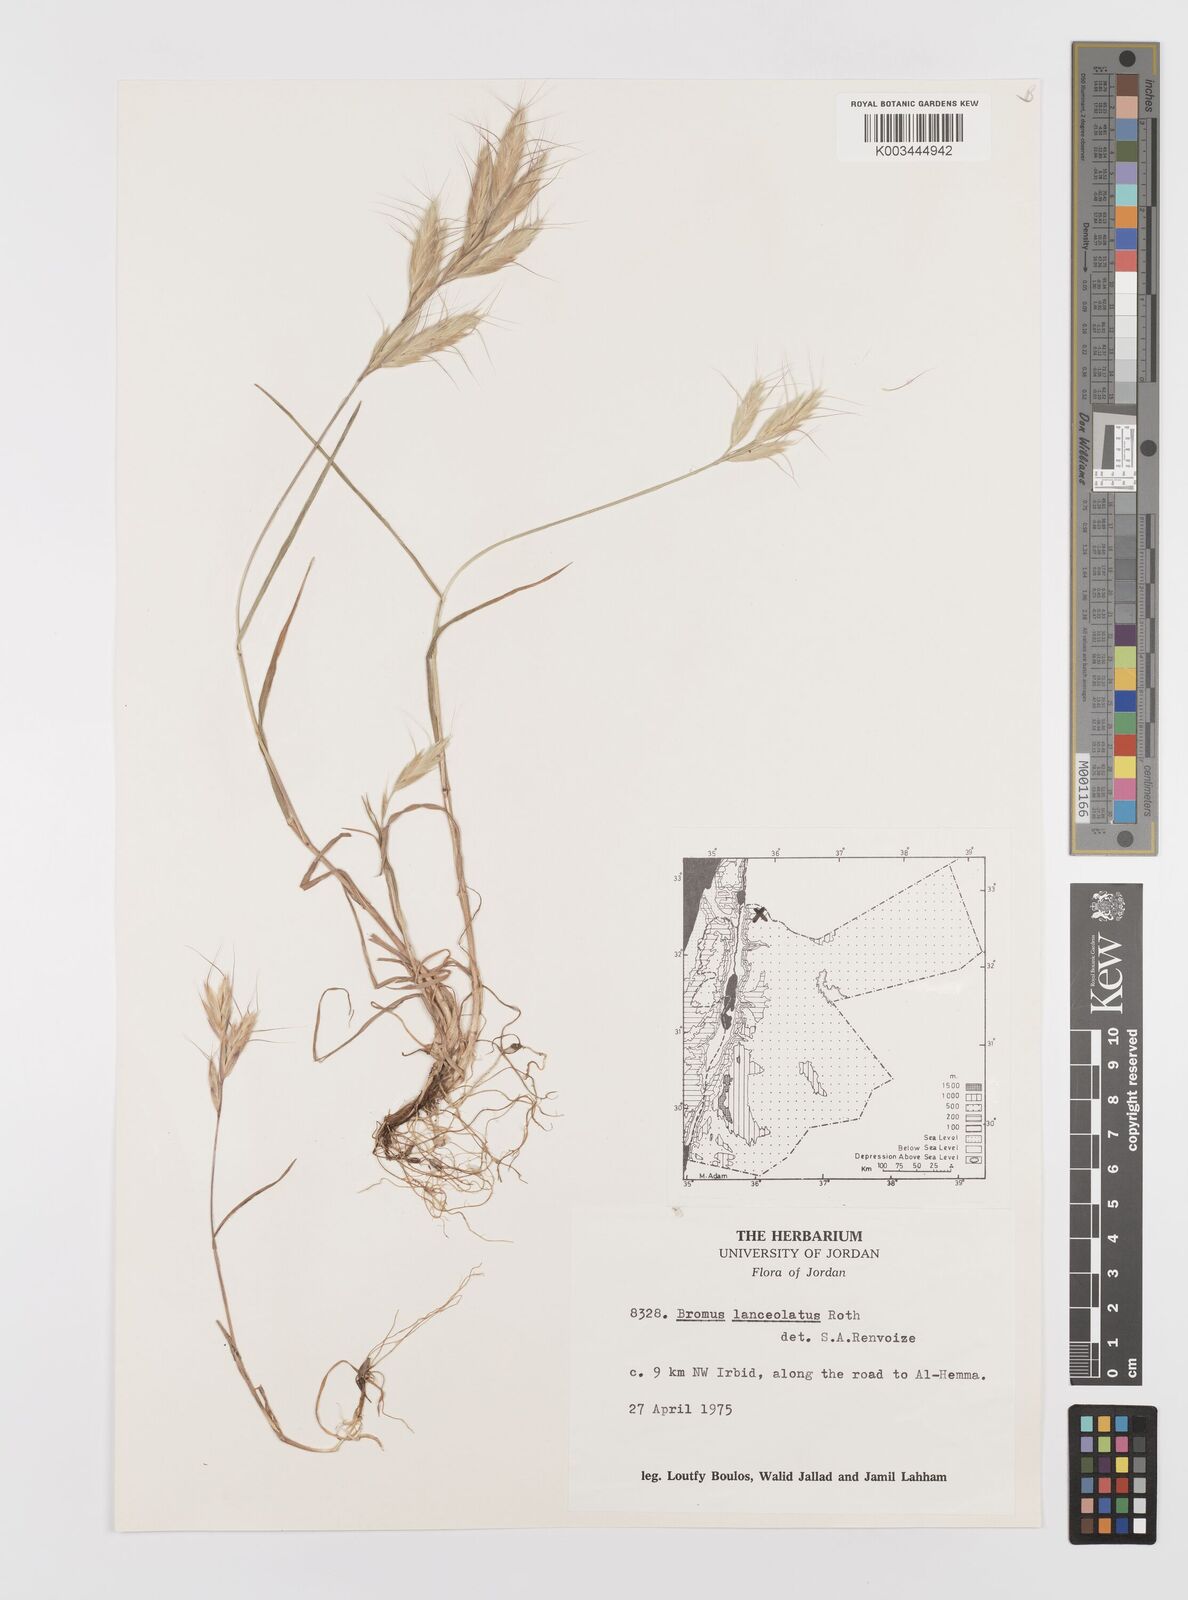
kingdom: Plantae
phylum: Tracheophyta
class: Liliopsida
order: Poales
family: Poaceae
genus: Bromus
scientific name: Bromus lanceolatus
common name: Mediterranean brome
